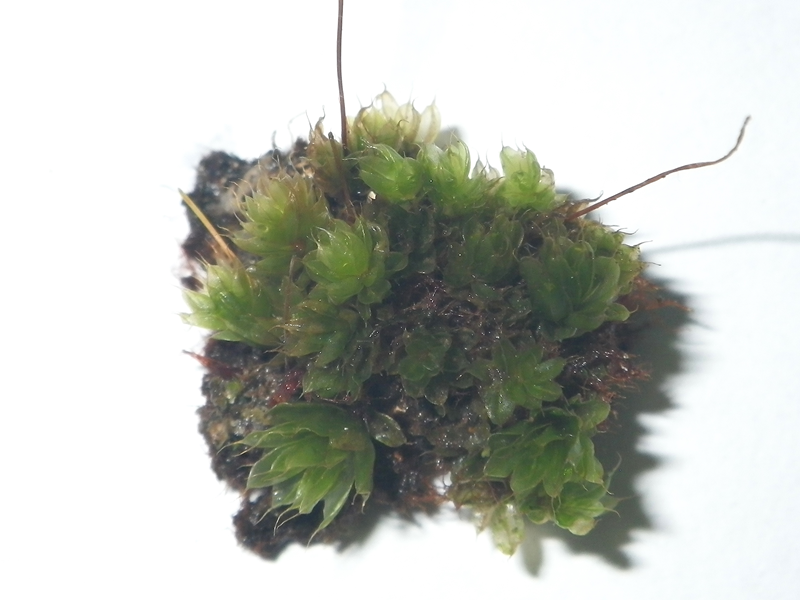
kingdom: Plantae
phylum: Bryophyta
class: Bryopsida
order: Bryales
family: Bryaceae
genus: Rosulabryum
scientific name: Rosulabryum capillare
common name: Capillary thread-moss
